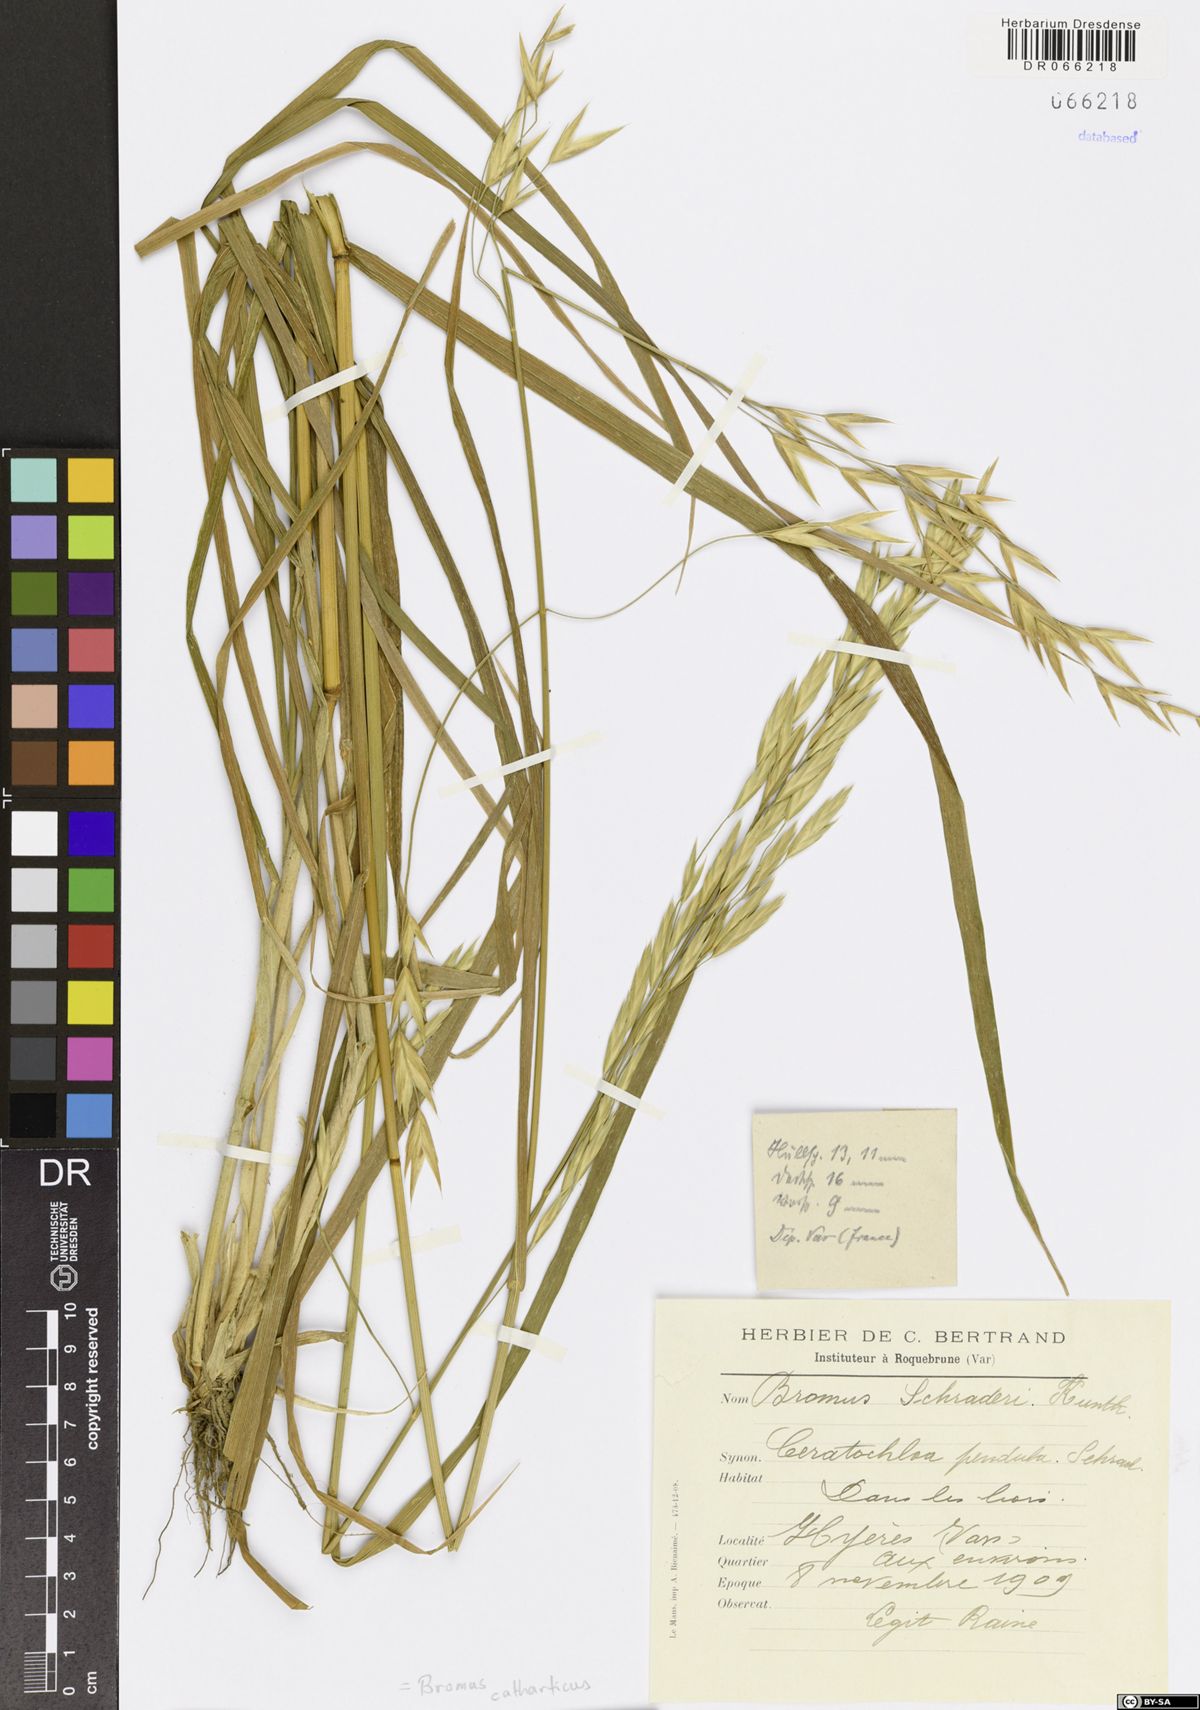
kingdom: Plantae
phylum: Tracheophyta
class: Liliopsida
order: Poales
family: Poaceae
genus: Bromus
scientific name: Bromus catharticus
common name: Rescuegrass
